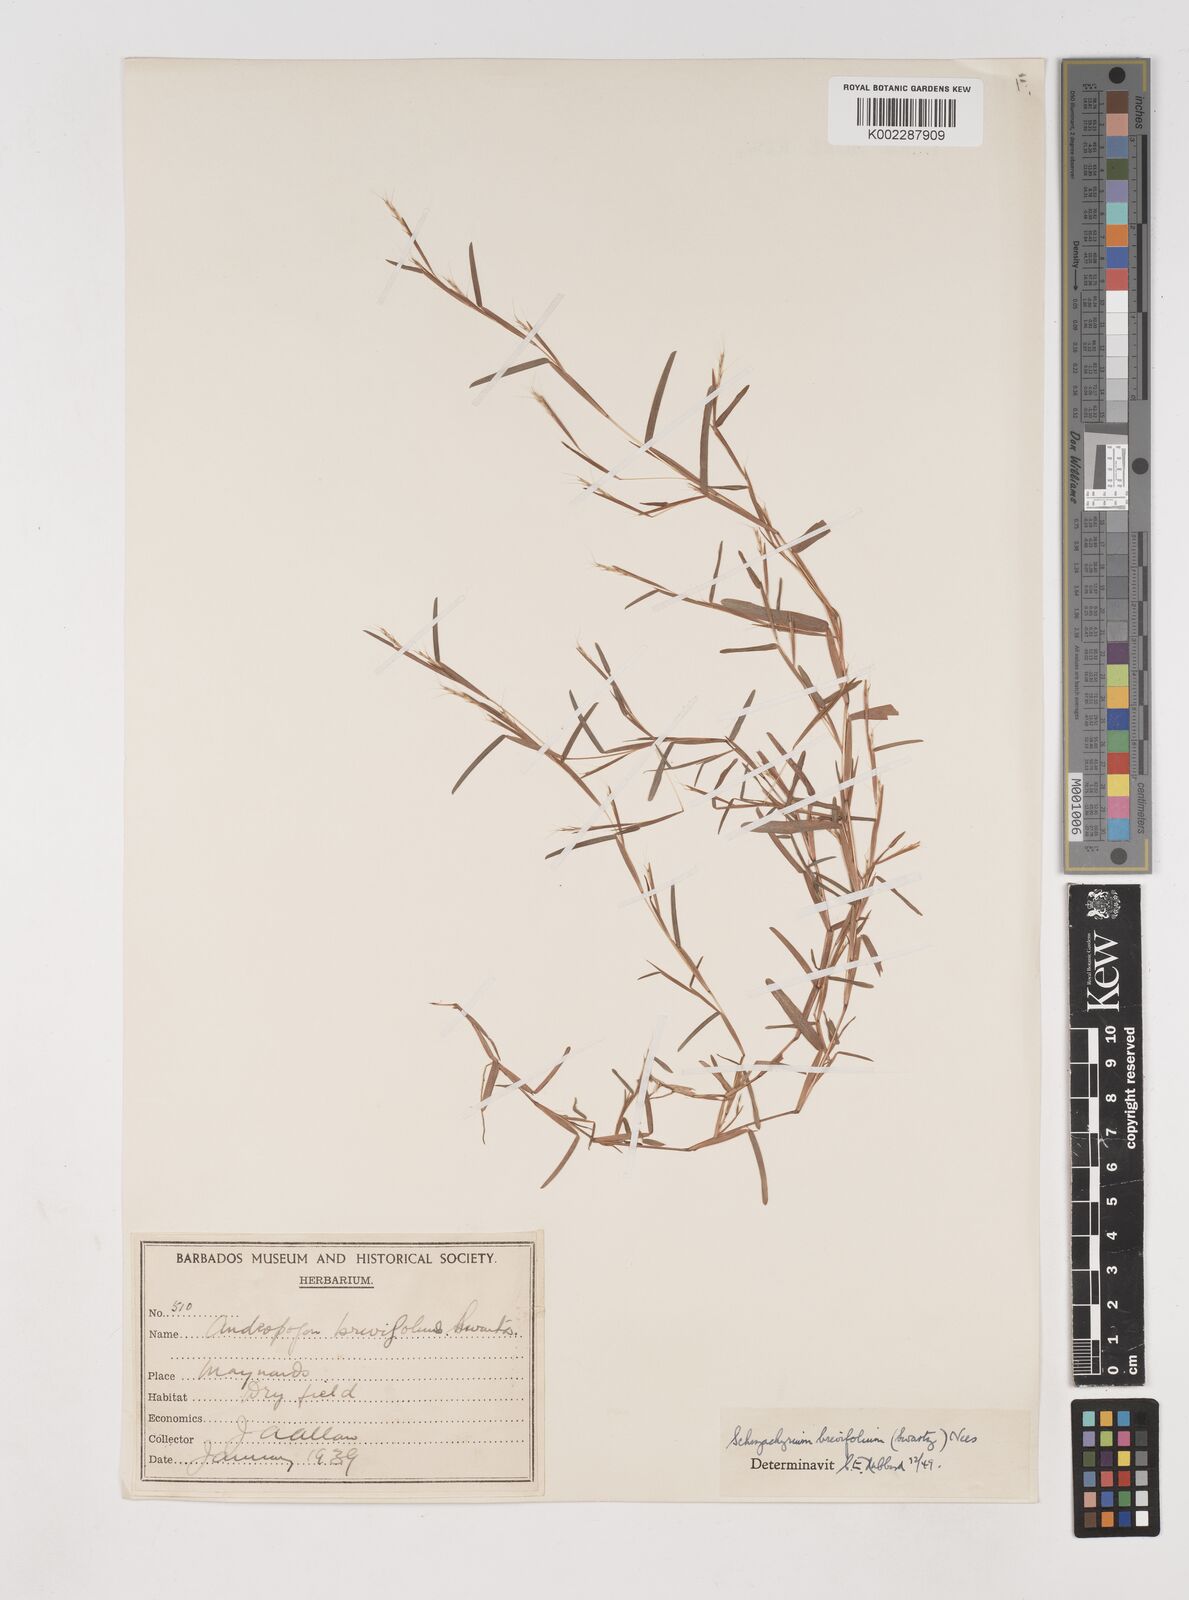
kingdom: Plantae
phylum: Tracheophyta
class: Liliopsida
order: Poales
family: Poaceae
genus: Schizachyrium
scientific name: Schizachyrium brevifolium
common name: Serillo dulce
